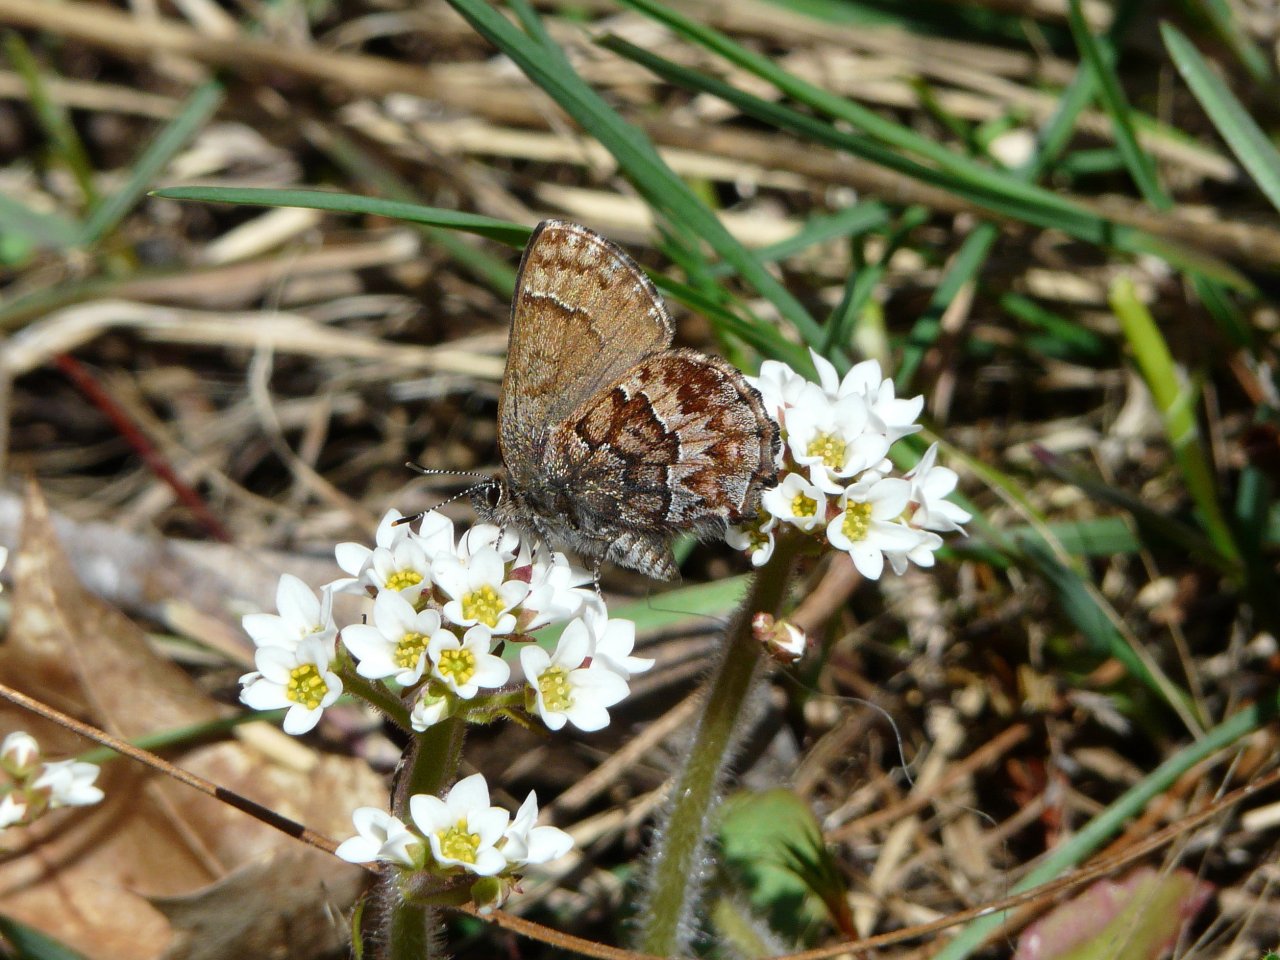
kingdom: Animalia
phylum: Arthropoda
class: Insecta
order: Lepidoptera
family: Lycaenidae
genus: Incisalia
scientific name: Incisalia niphon
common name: Eastern Pine Elfin
